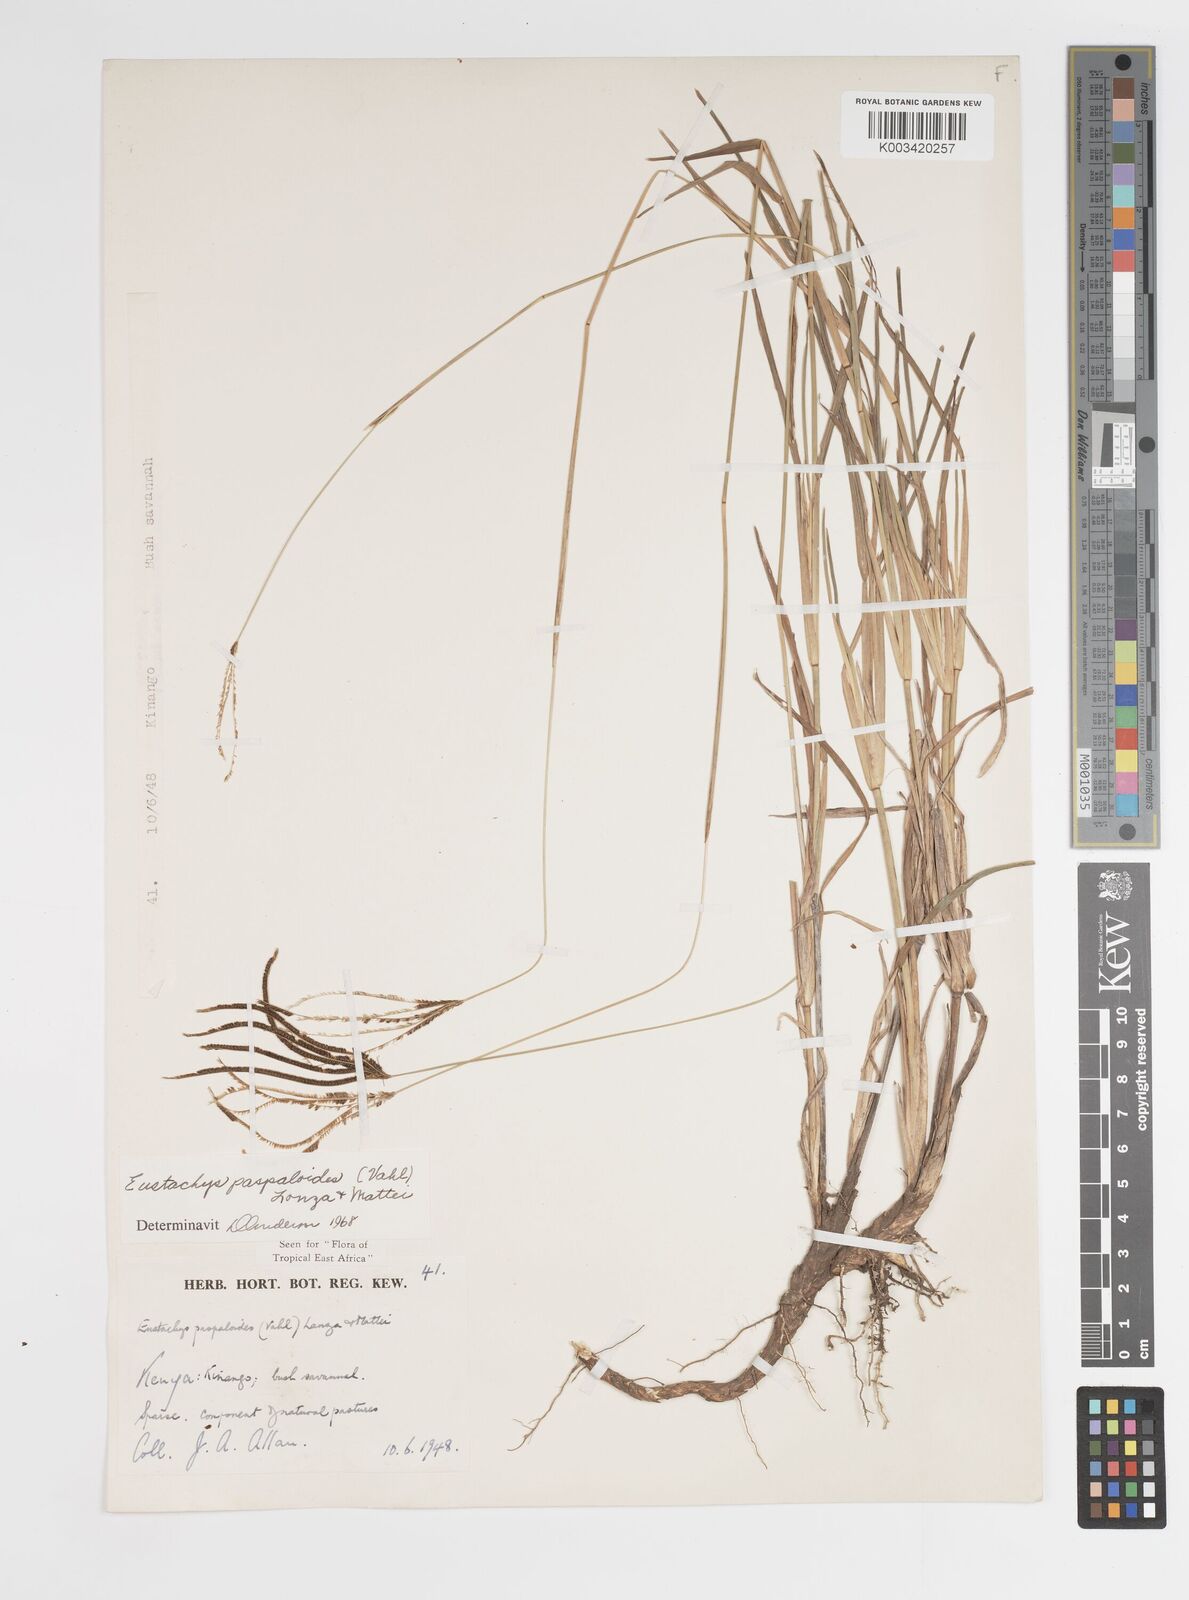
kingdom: Plantae
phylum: Tracheophyta
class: Liliopsida
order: Poales
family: Poaceae
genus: Eustachys
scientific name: Eustachys paspaloides
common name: Caribbean fingergrass
